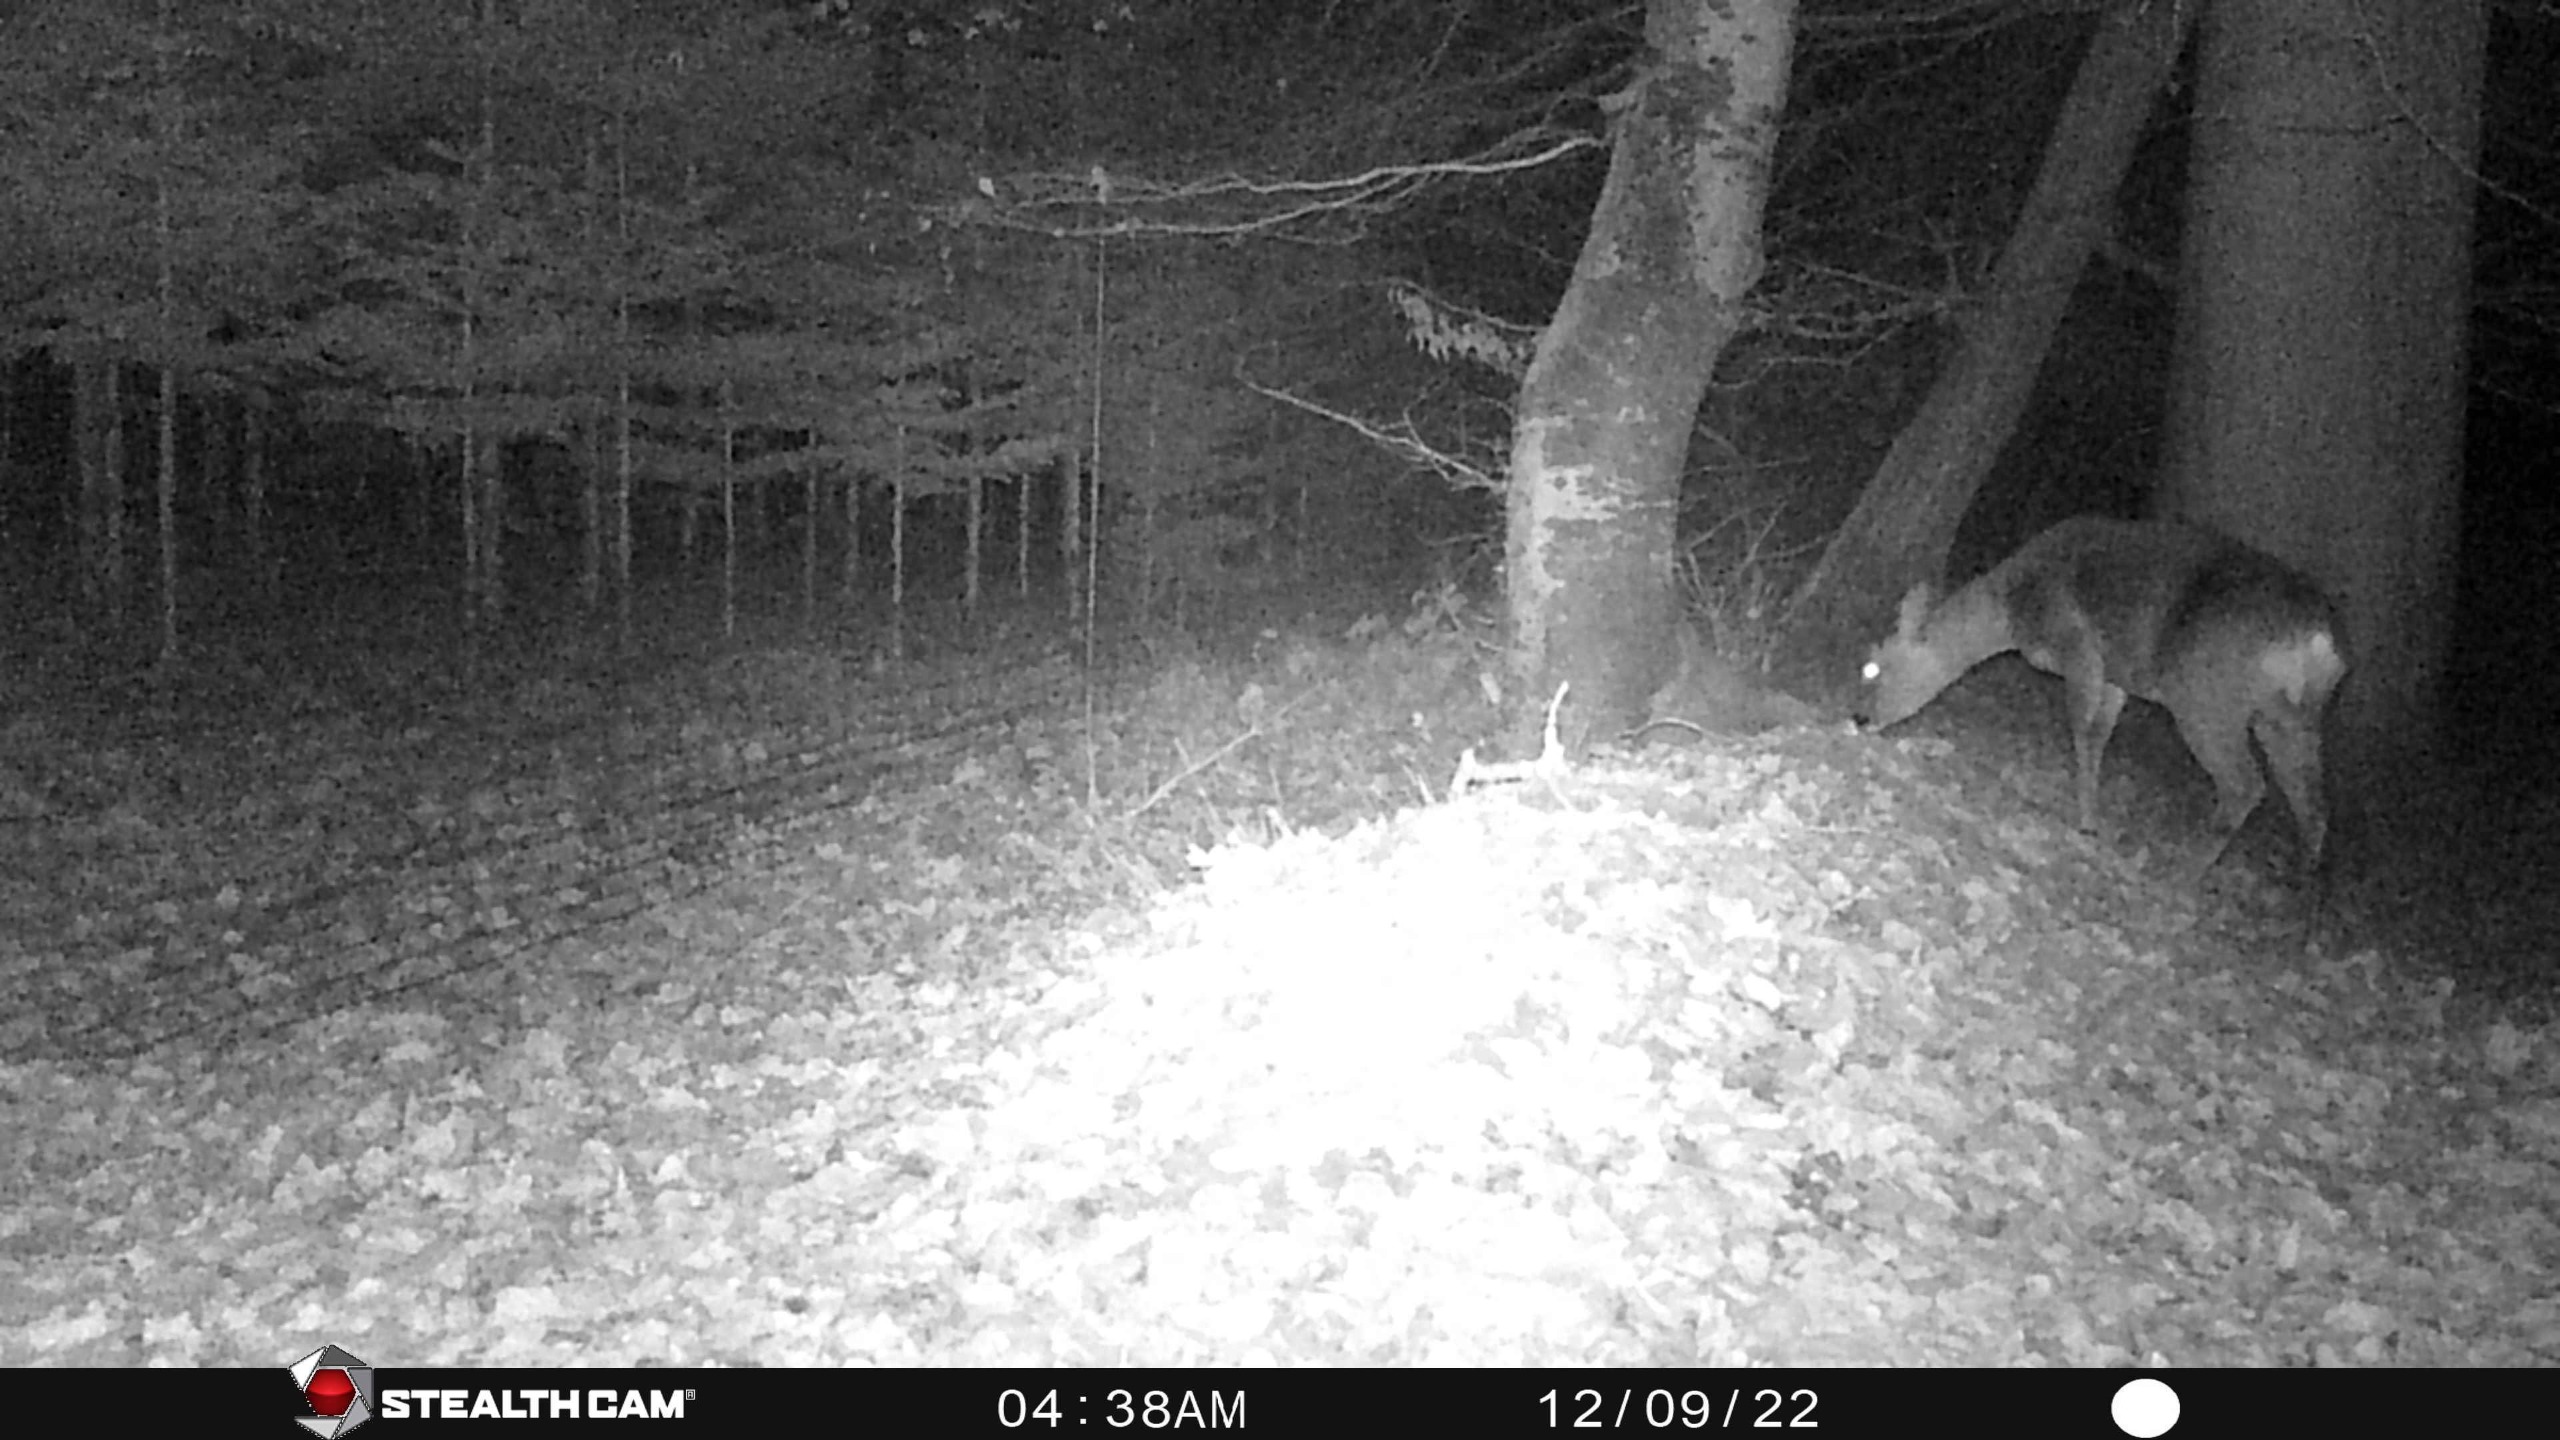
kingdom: Animalia
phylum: Chordata
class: Mammalia
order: Artiodactyla
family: Cervidae
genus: Capreolus
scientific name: Capreolus capreolus
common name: Rådyr
